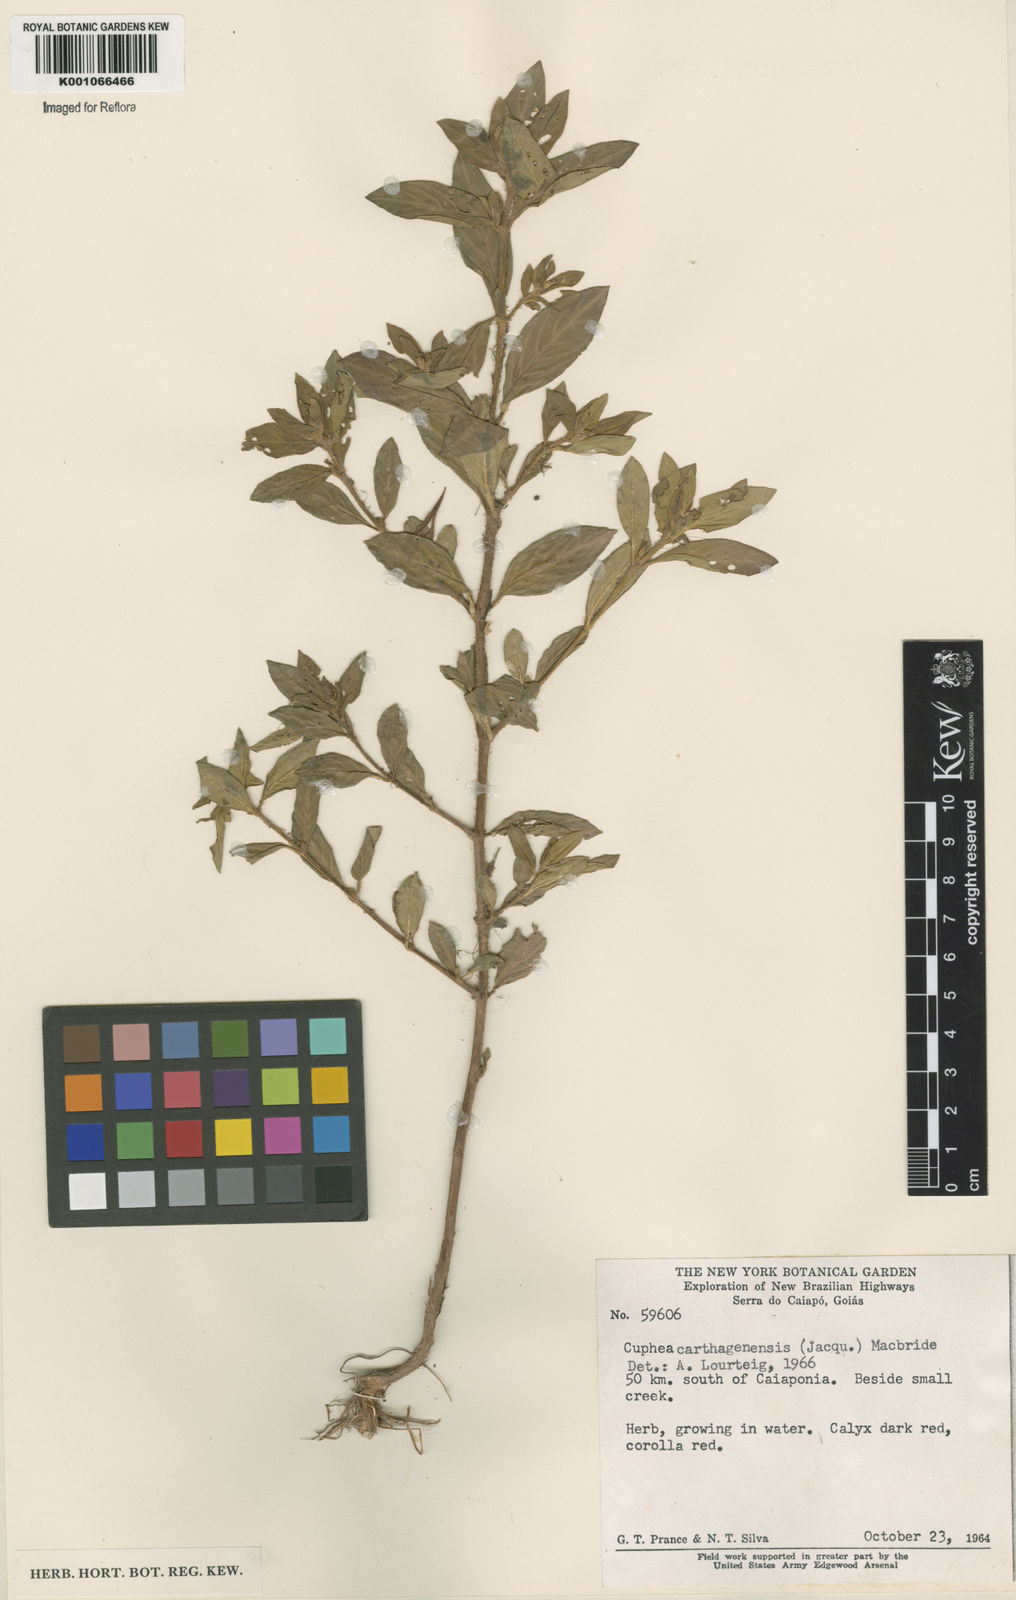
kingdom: Plantae
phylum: Tracheophyta
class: Magnoliopsida
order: Myrtales
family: Lythraceae
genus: Cuphea
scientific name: Cuphea carthagenensis
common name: Colombian waxweed
